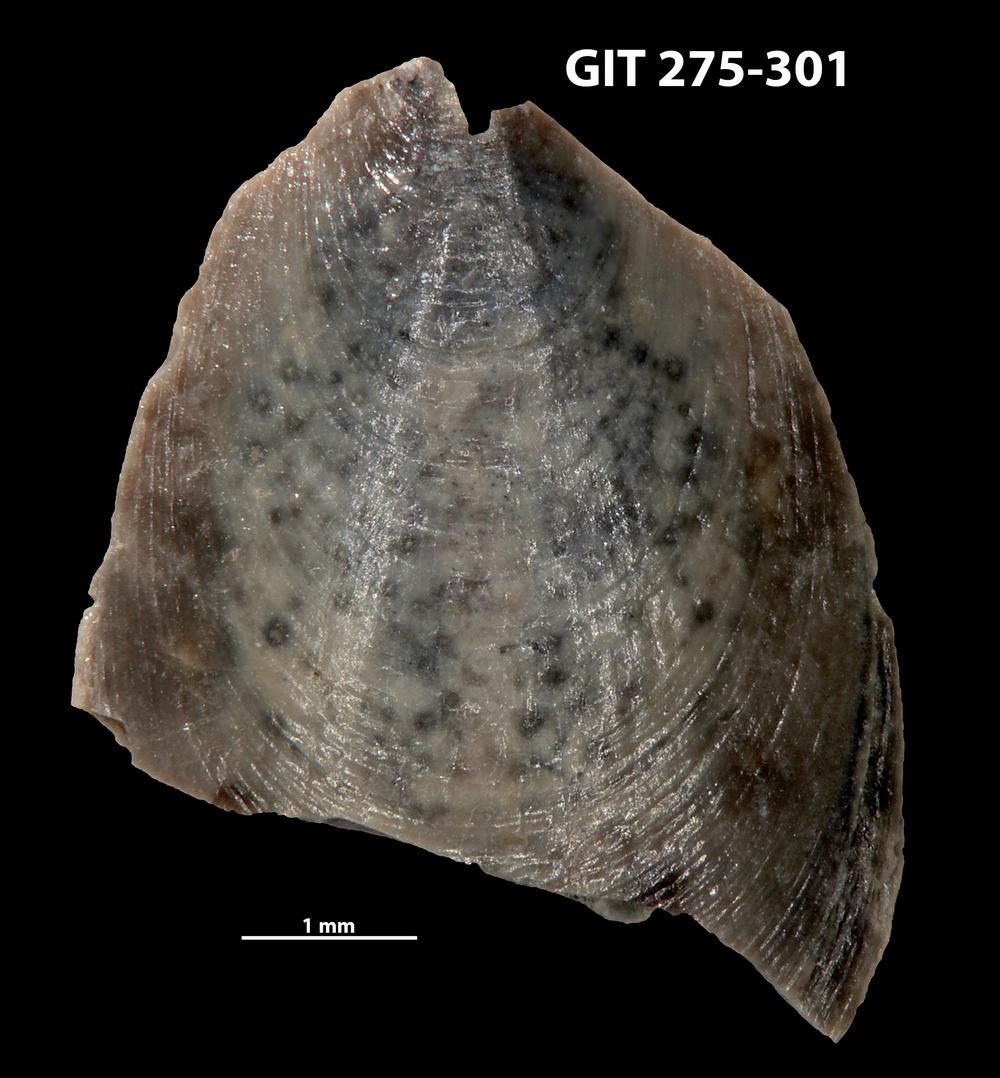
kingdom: Animalia
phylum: Brachiopoda
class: Lingulata
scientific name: Lingulata
